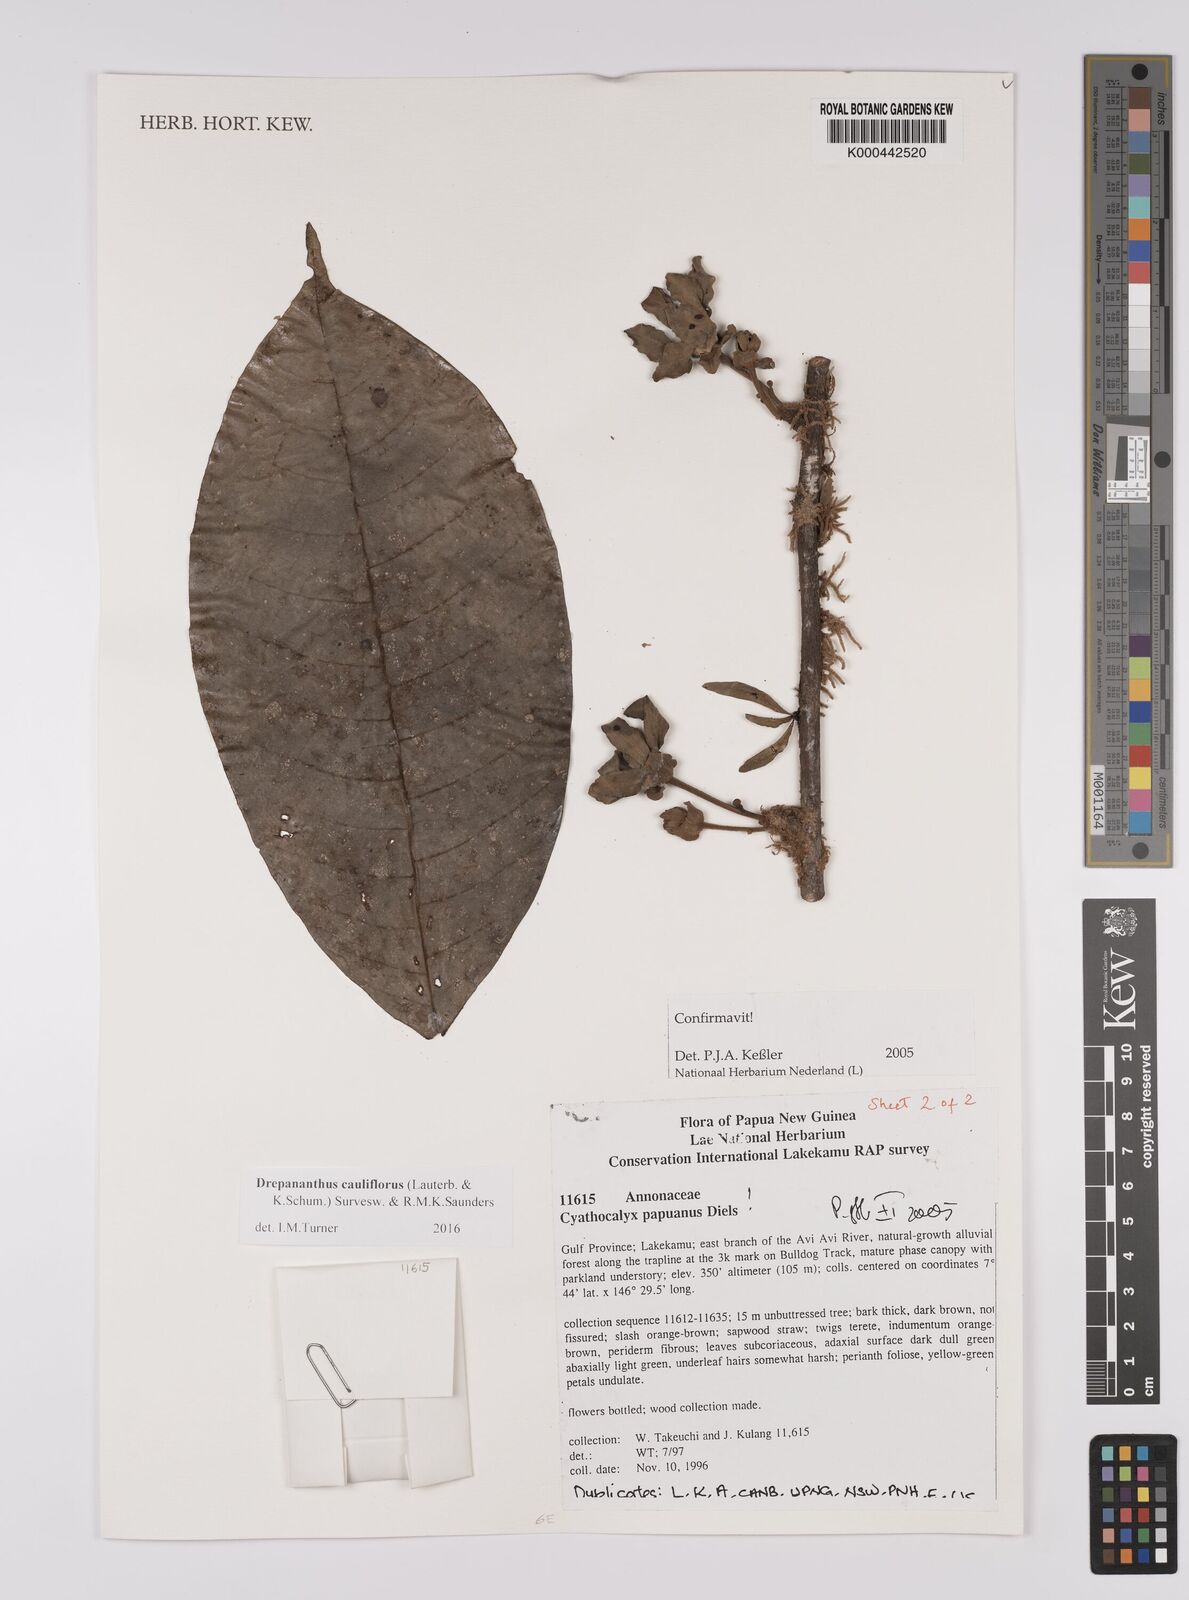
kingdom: Plantae
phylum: Tracheophyta
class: Magnoliopsida
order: Magnoliales
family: Annonaceae
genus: Drepananthus
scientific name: Drepananthus cauliflorus
